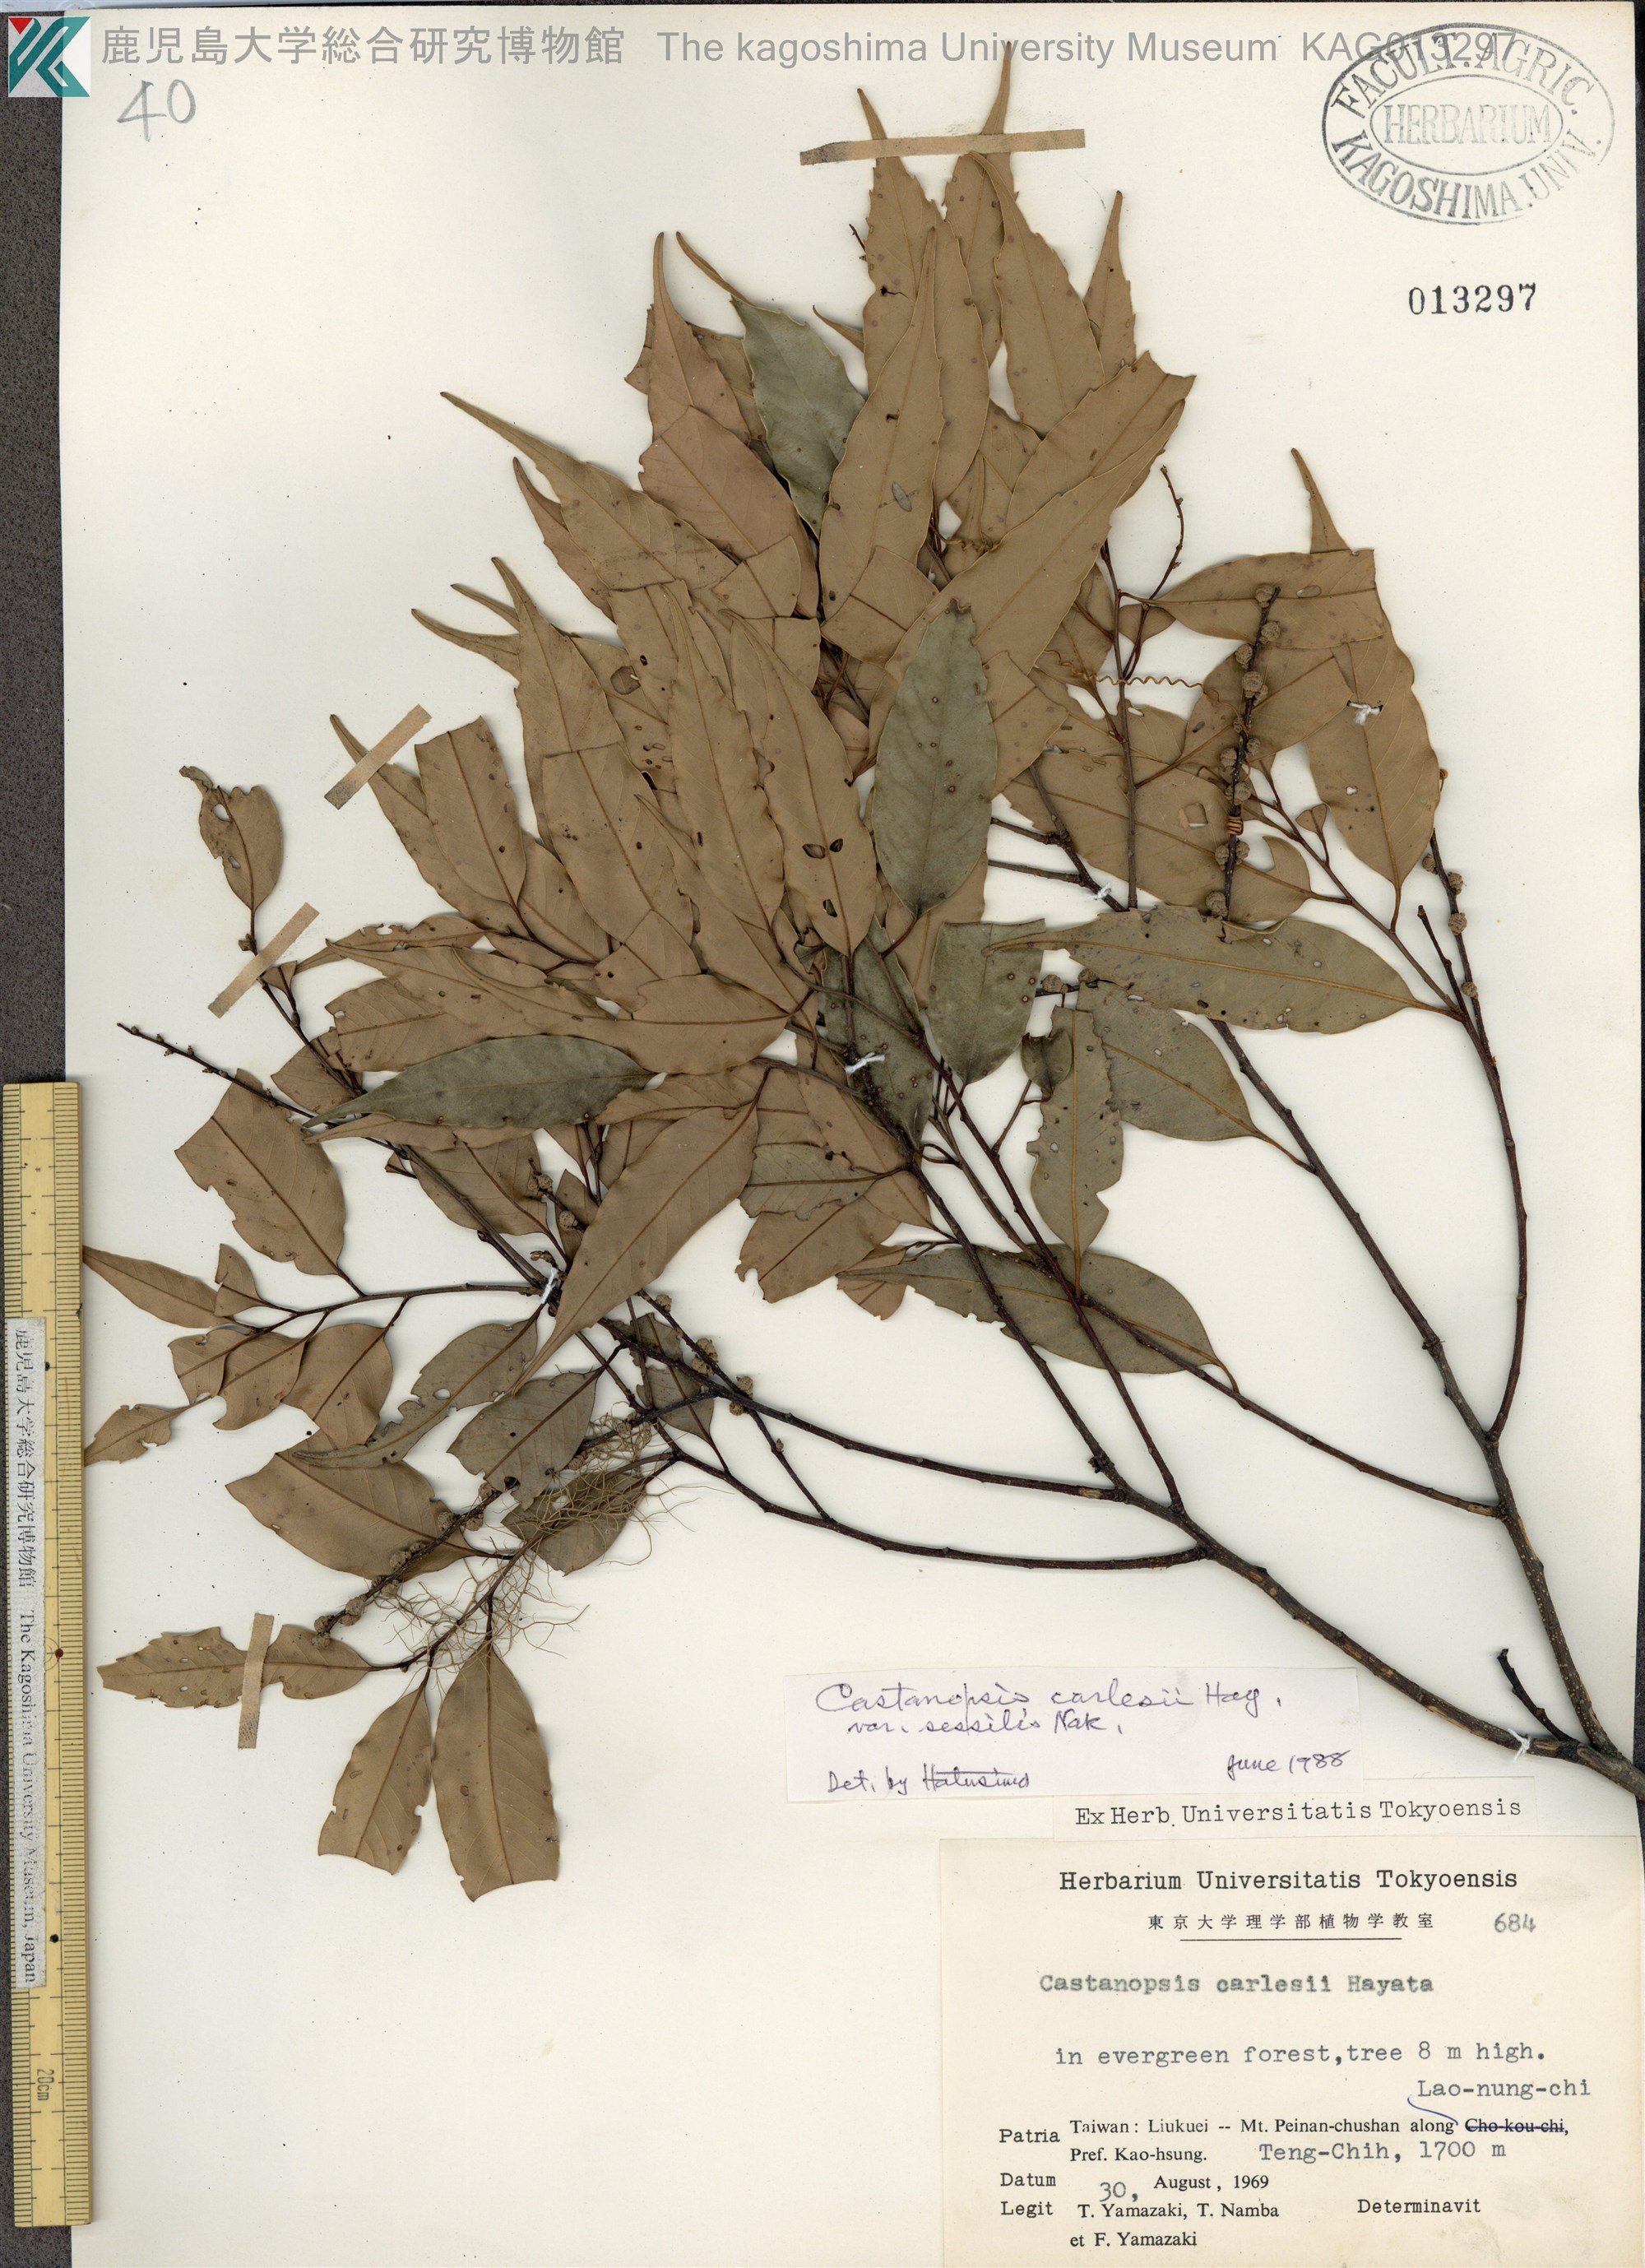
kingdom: Plantae
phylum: Tracheophyta
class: Magnoliopsida
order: Fagales
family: Fagaceae
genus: Castanopsis
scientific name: Castanopsis carlesii
